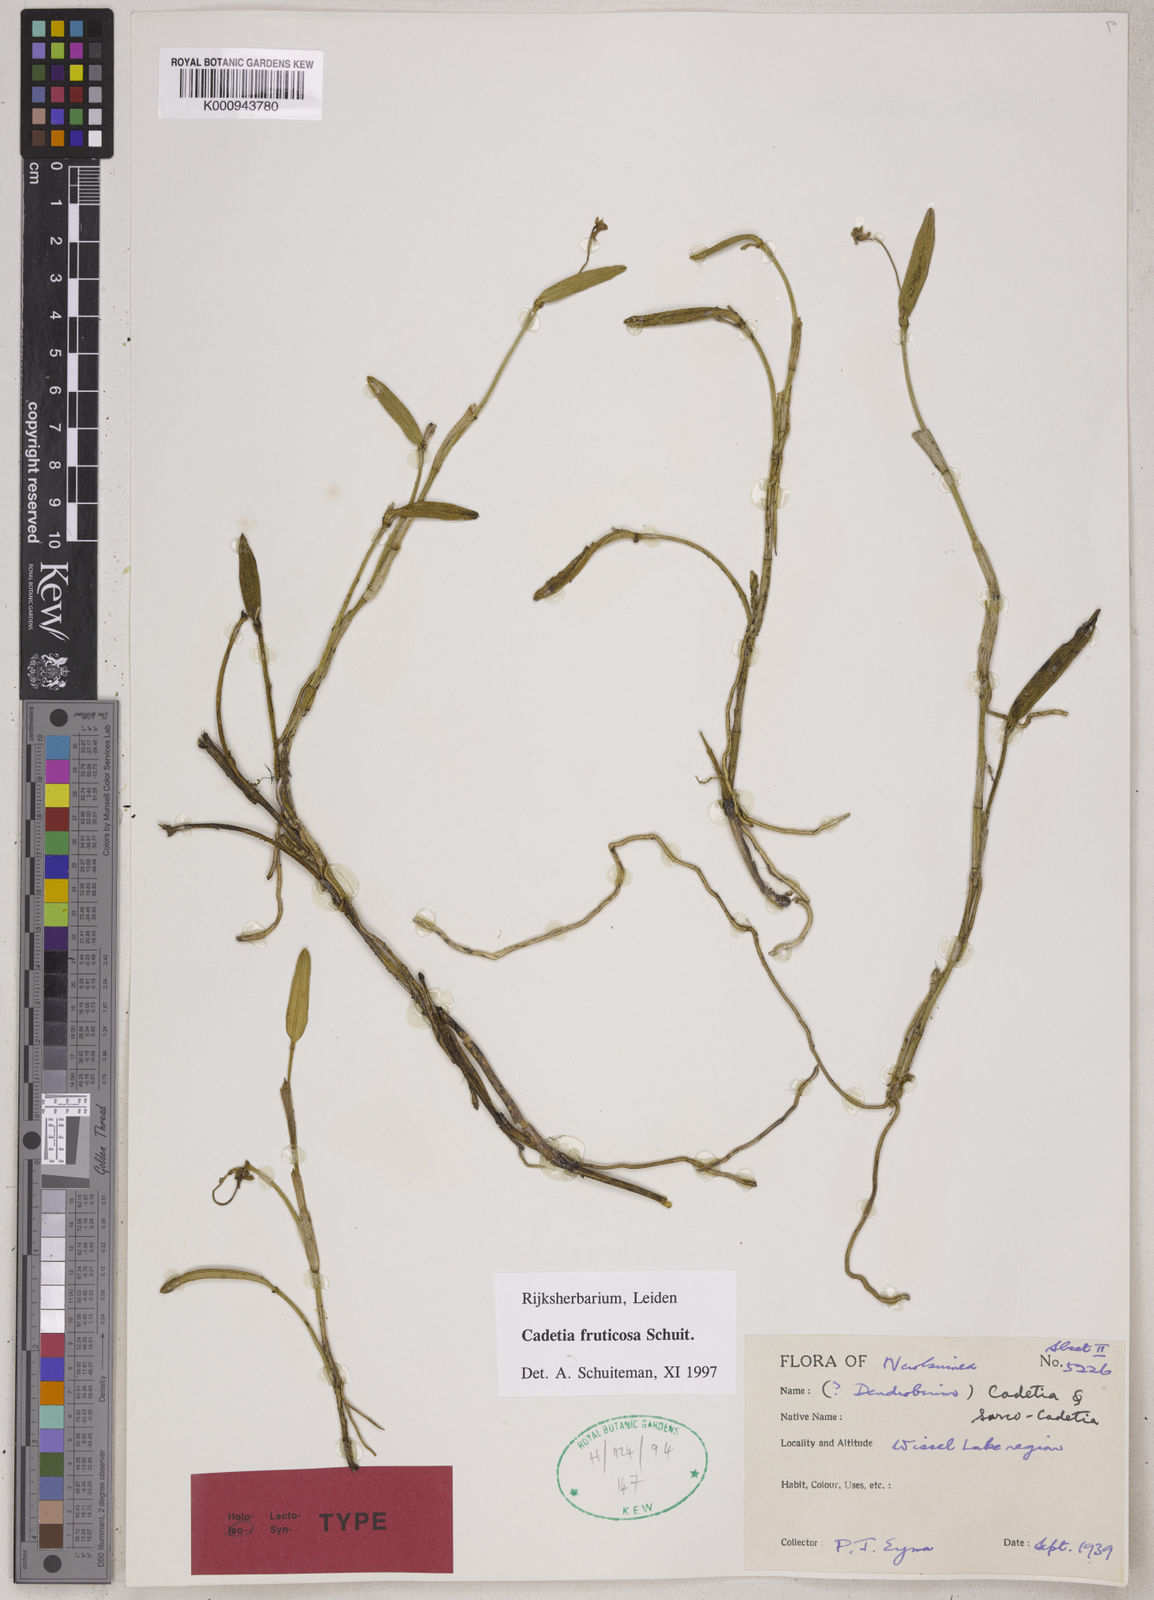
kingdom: Plantae
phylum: Tracheophyta
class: Liliopsida
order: Asparagales
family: Orchidaceae
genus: Dendrobium
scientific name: Dendrobium
